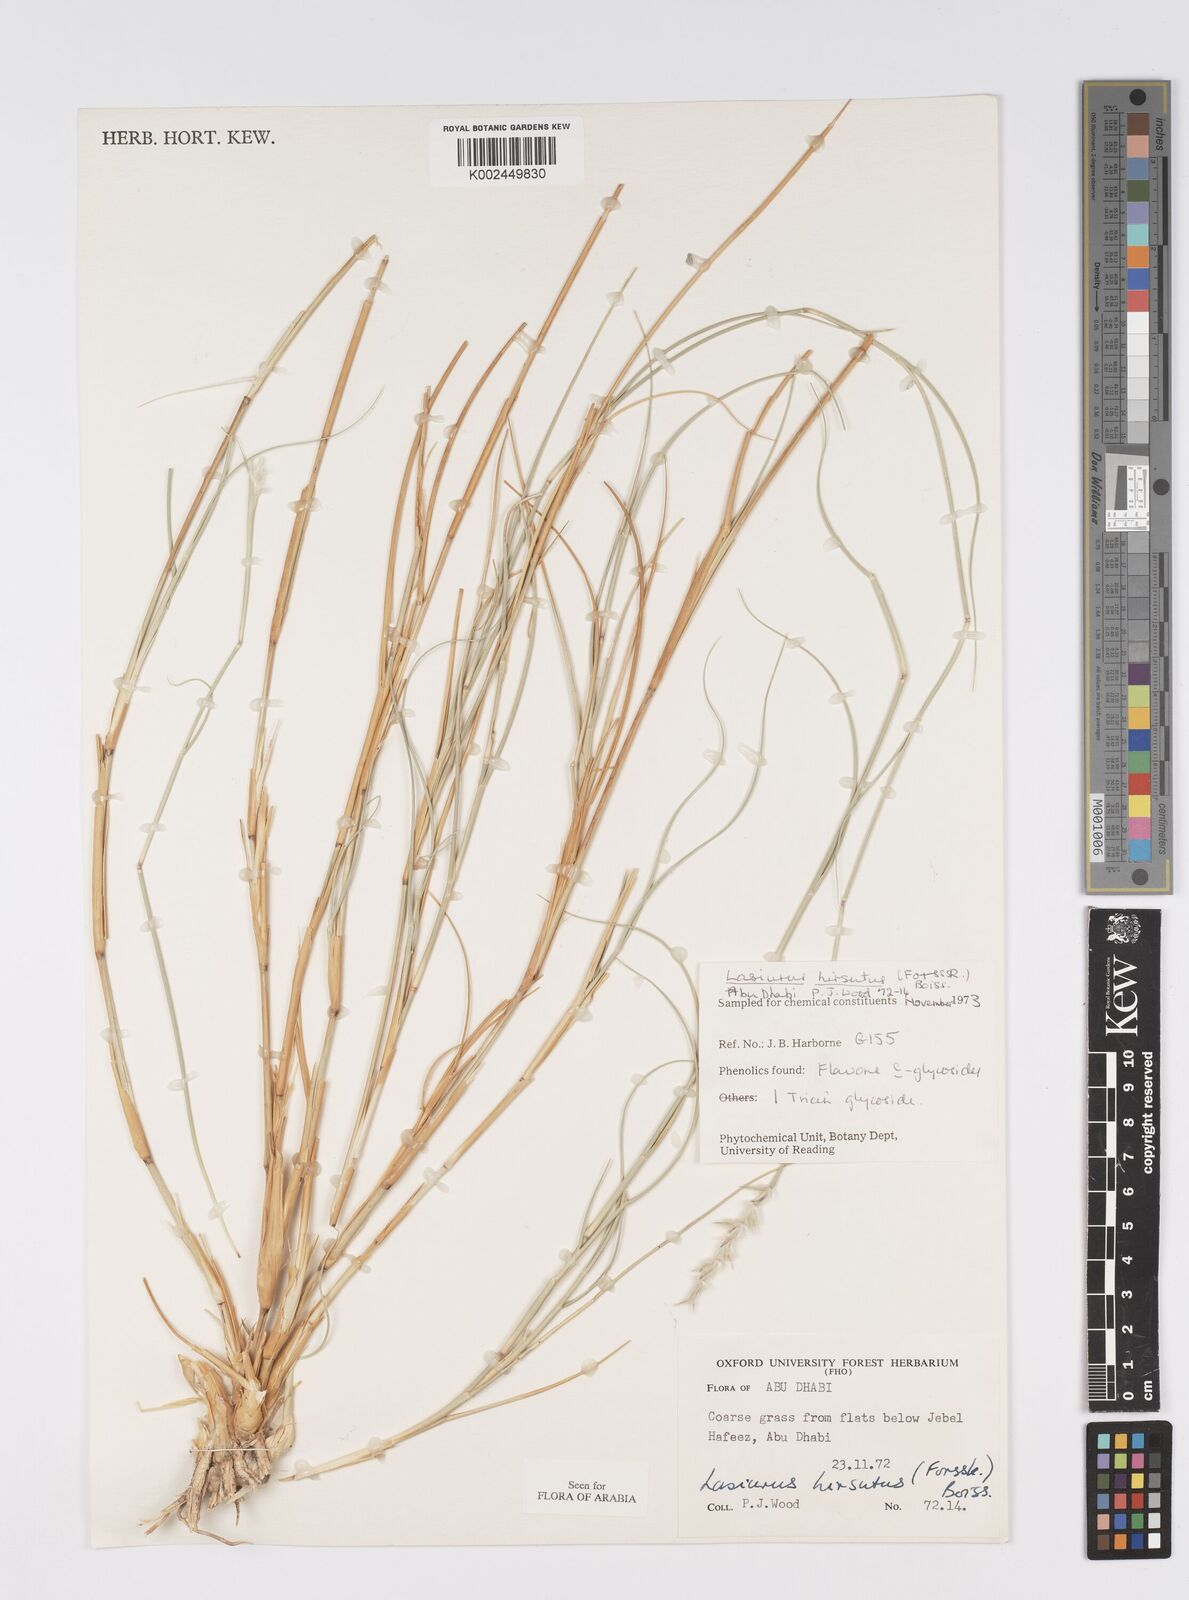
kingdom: Plantae
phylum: Tracheophyta
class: Liliopsida
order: Poales
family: Poaceae
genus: Lasiurus
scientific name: Lasiurus scindicus
